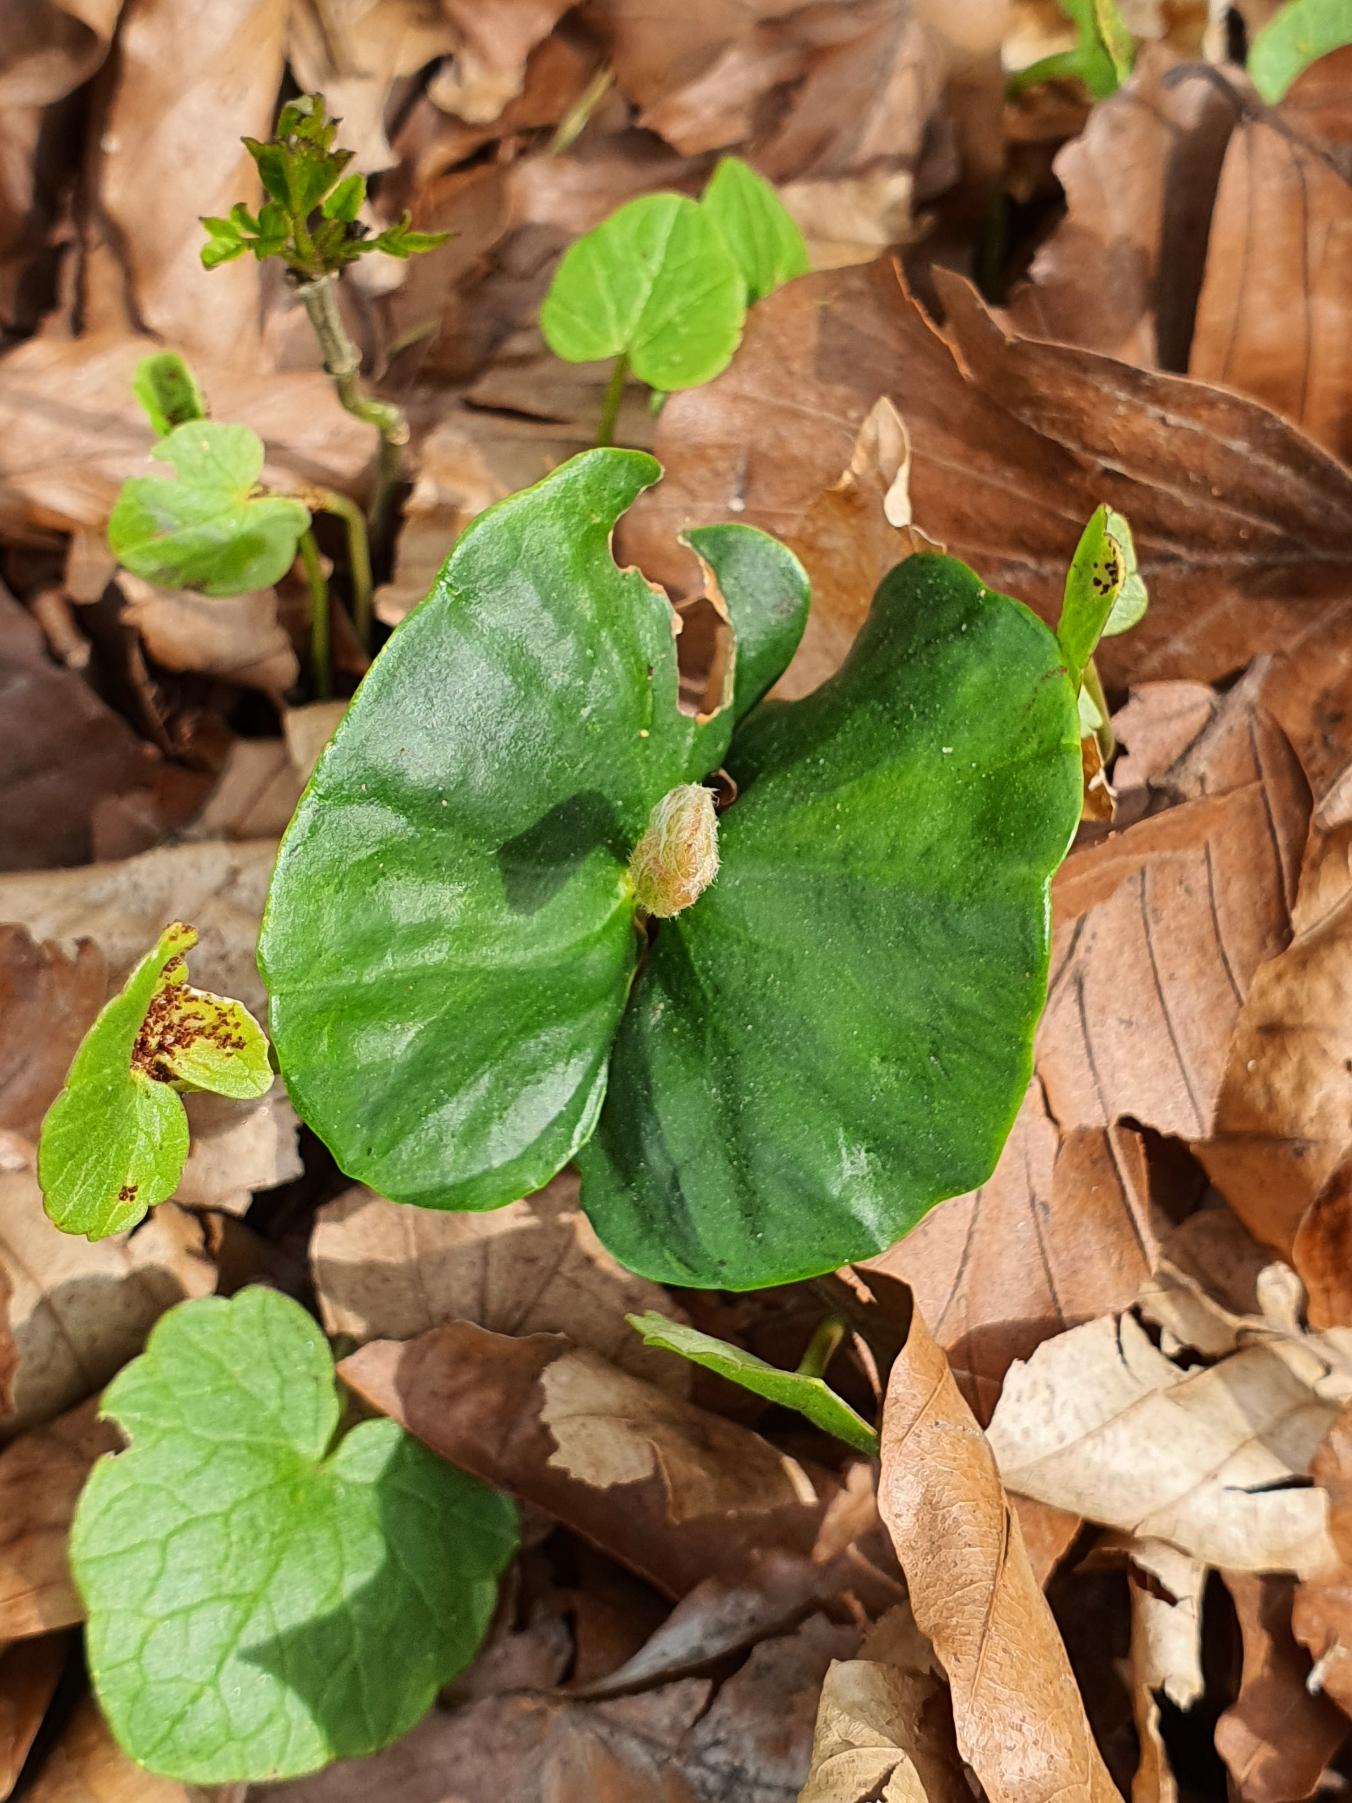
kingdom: Plantae
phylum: Tracheophyta
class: Magnoliopsida
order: Fagales
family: Fagaceae
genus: Fagus
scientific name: Fagus sylvatica
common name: Bøg
